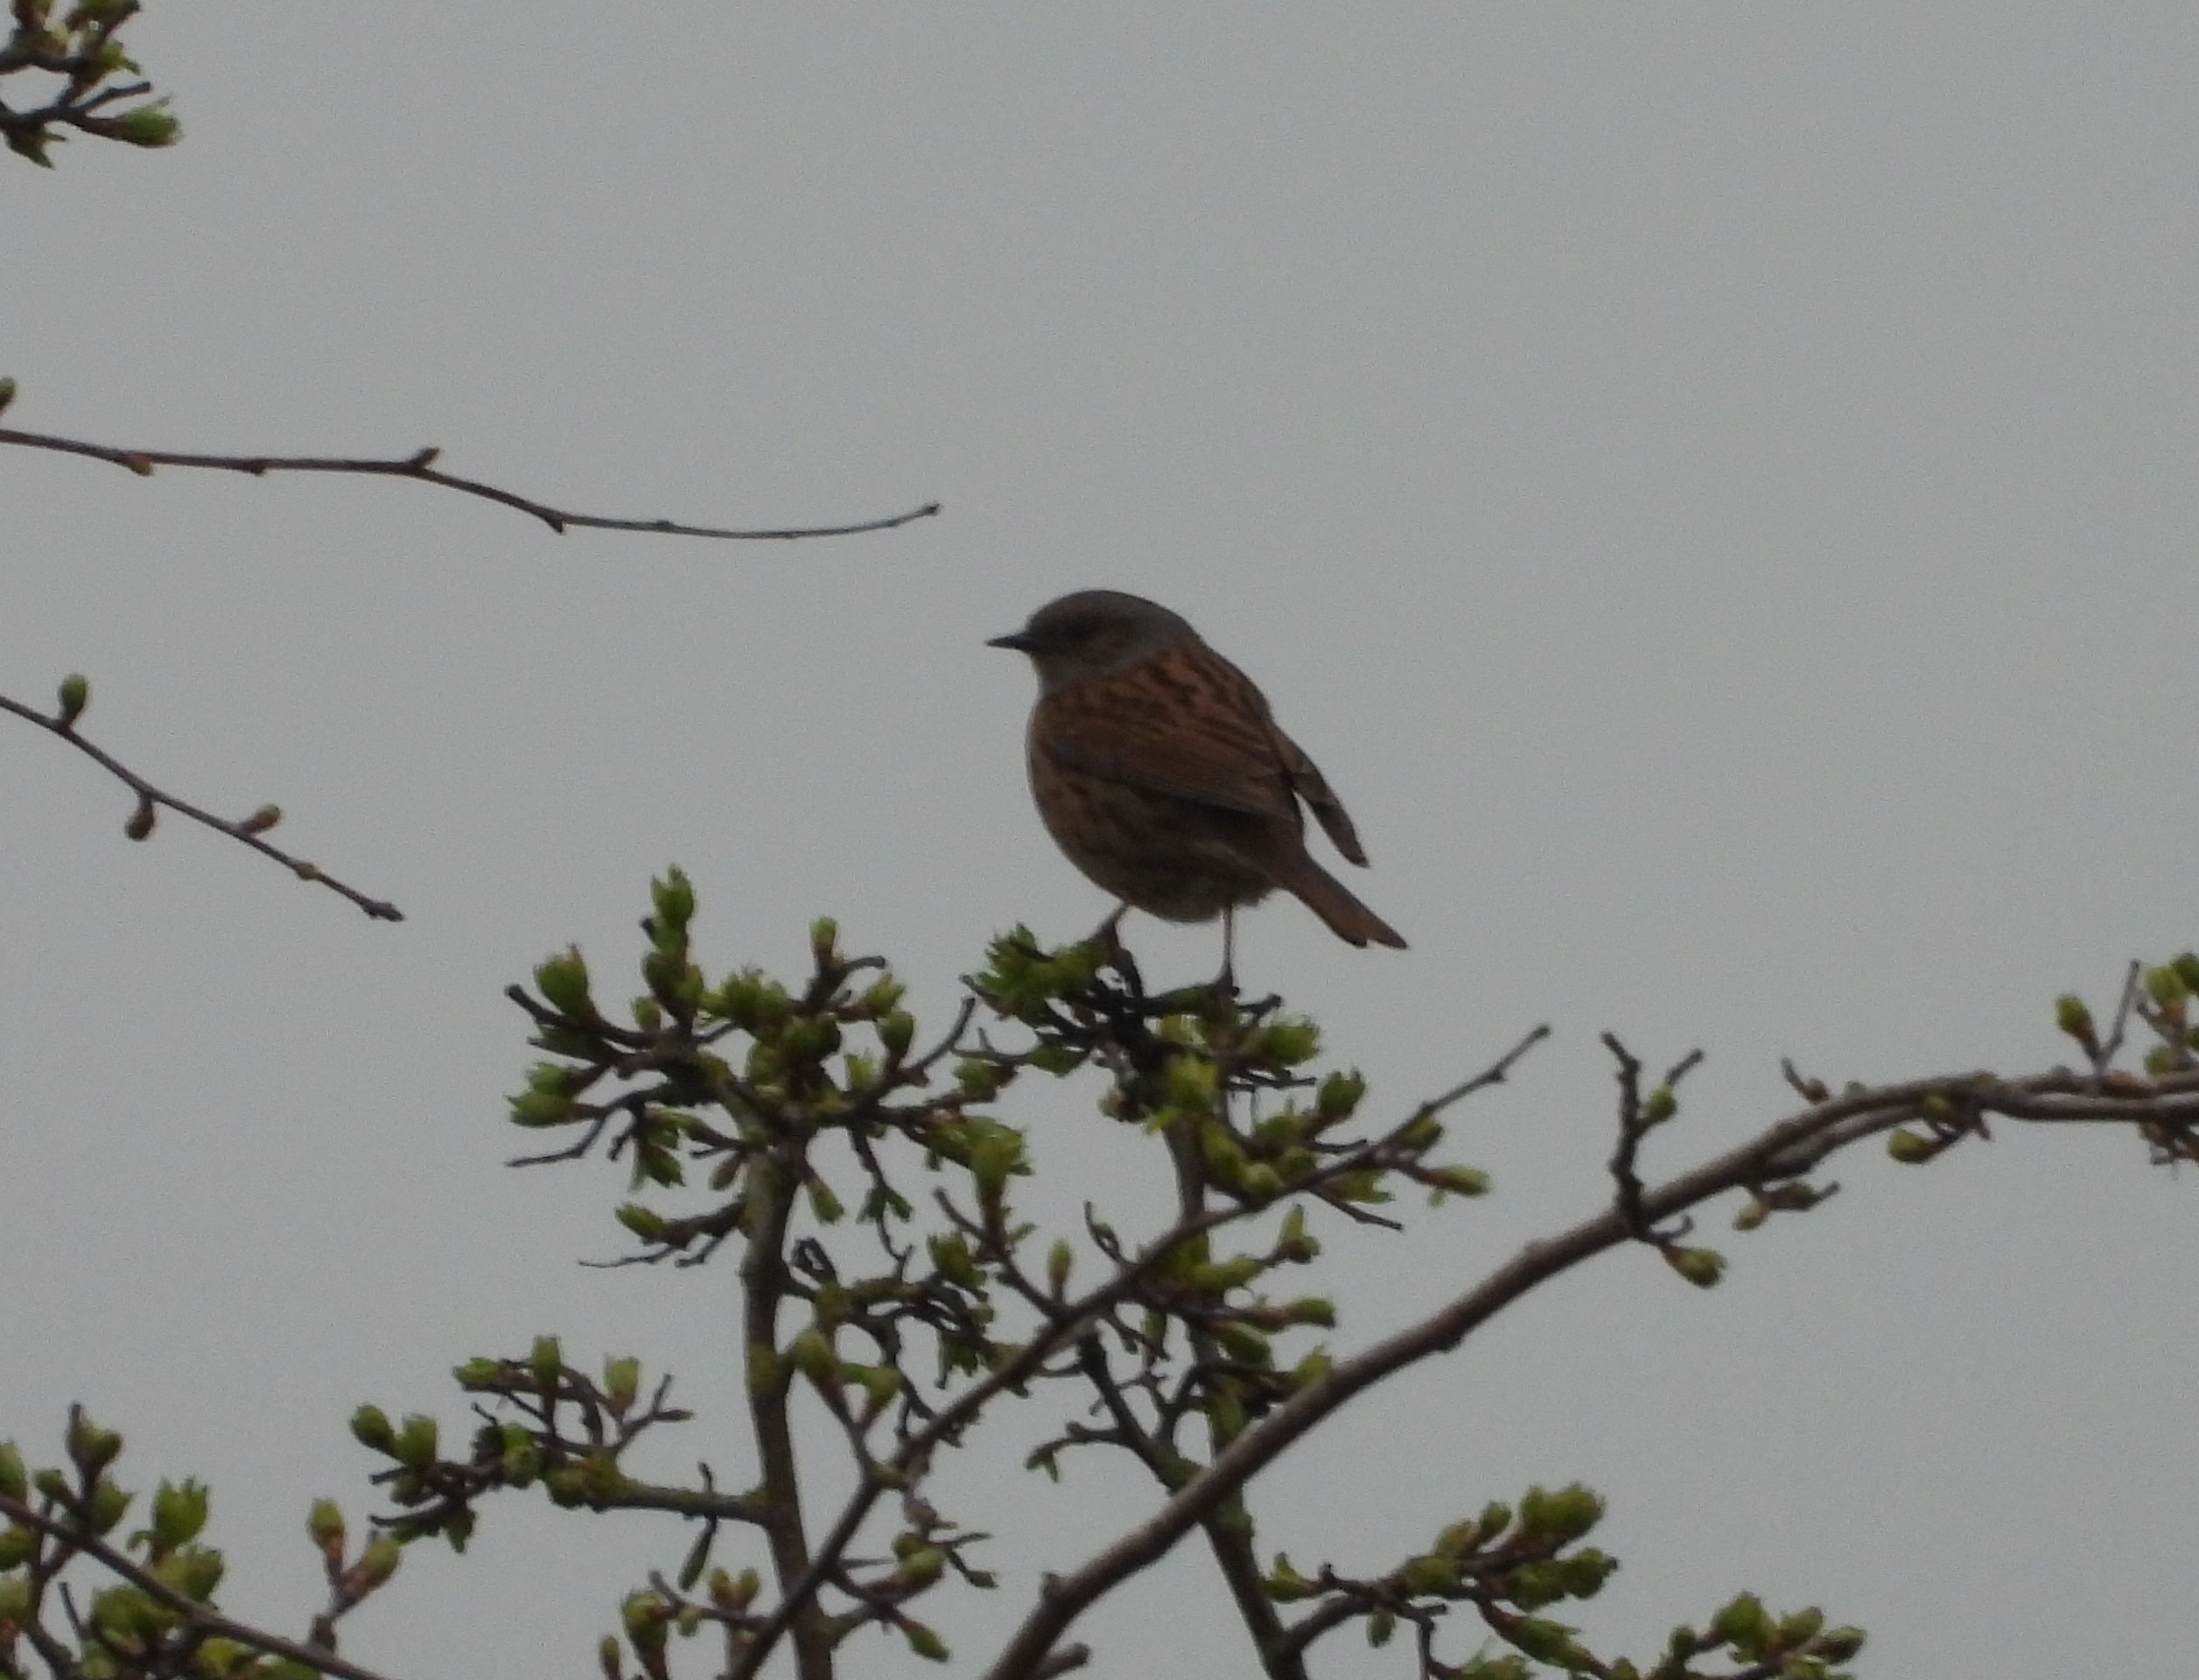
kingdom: Animalia
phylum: Chordata
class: Aves
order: Passeriformes
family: Prunellidae
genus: Prunella
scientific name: Prunella modularis
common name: Jernspurv
